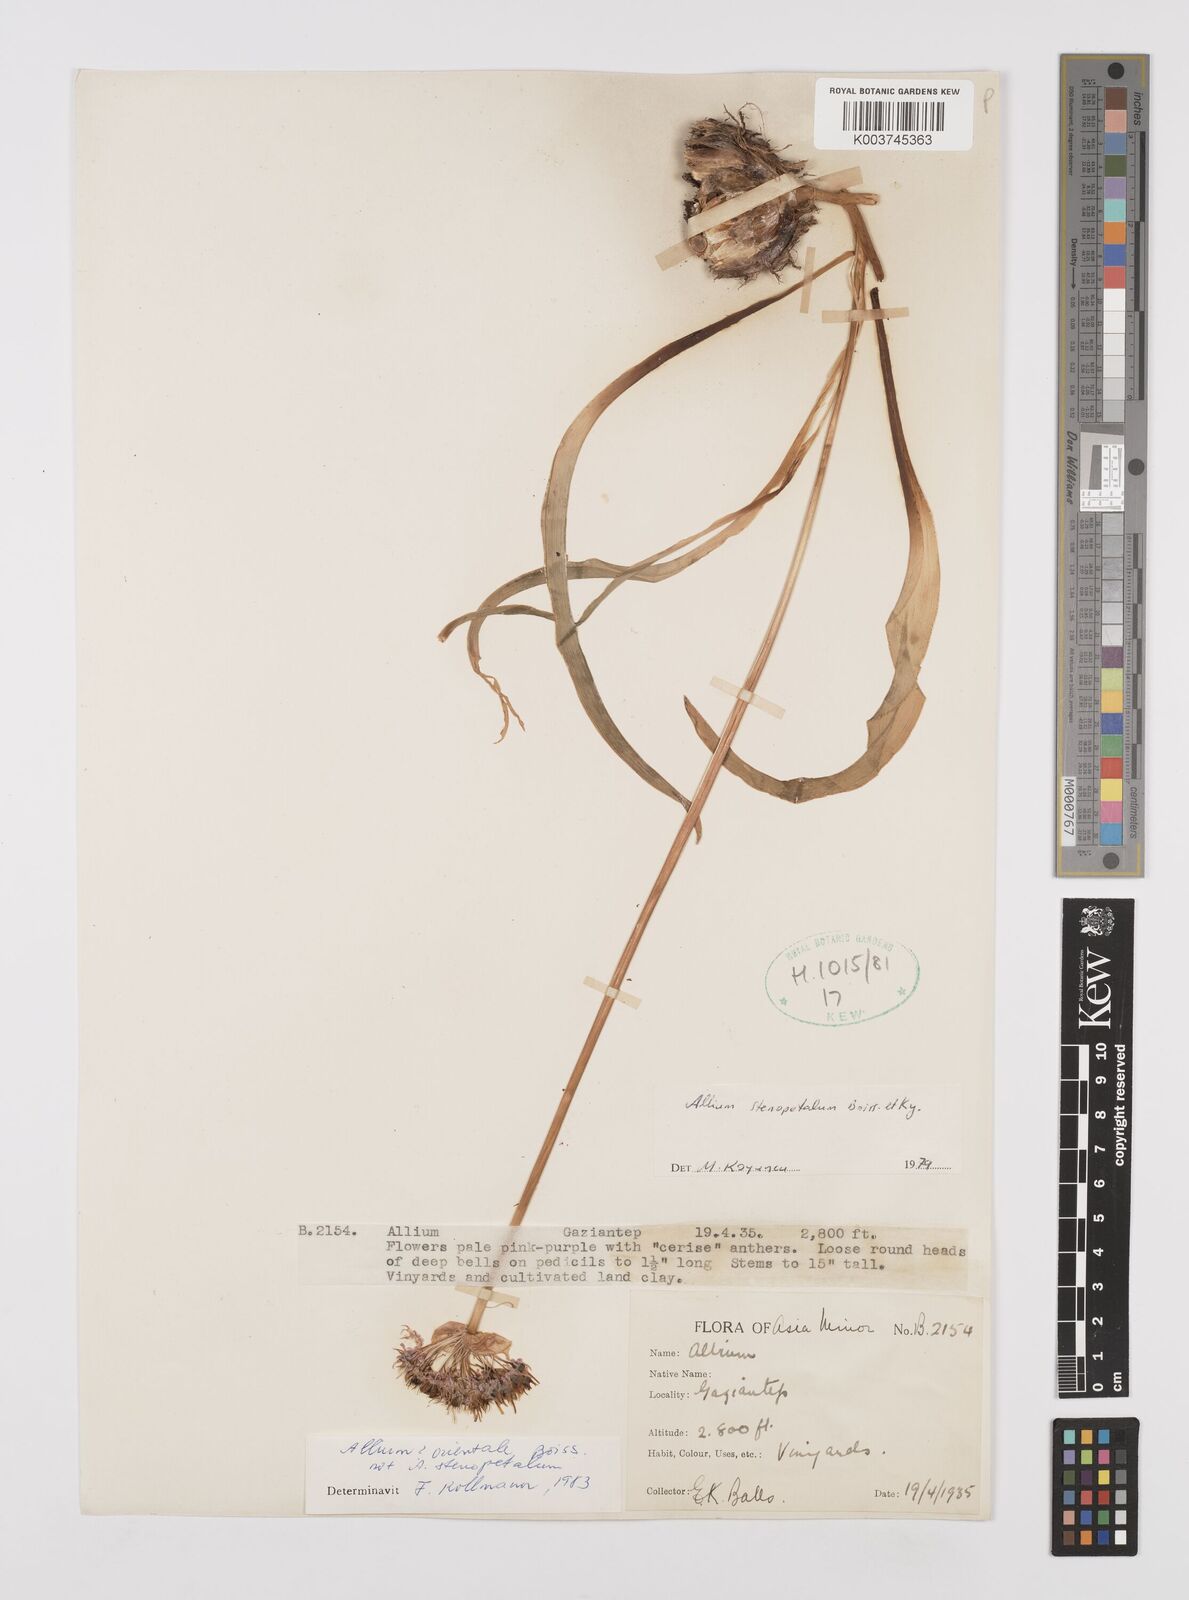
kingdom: Plantae
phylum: Tracheophyta
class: Liliopsida
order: Asparagales
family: Amaryllidaceae
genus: Allium
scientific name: Allium orientale
